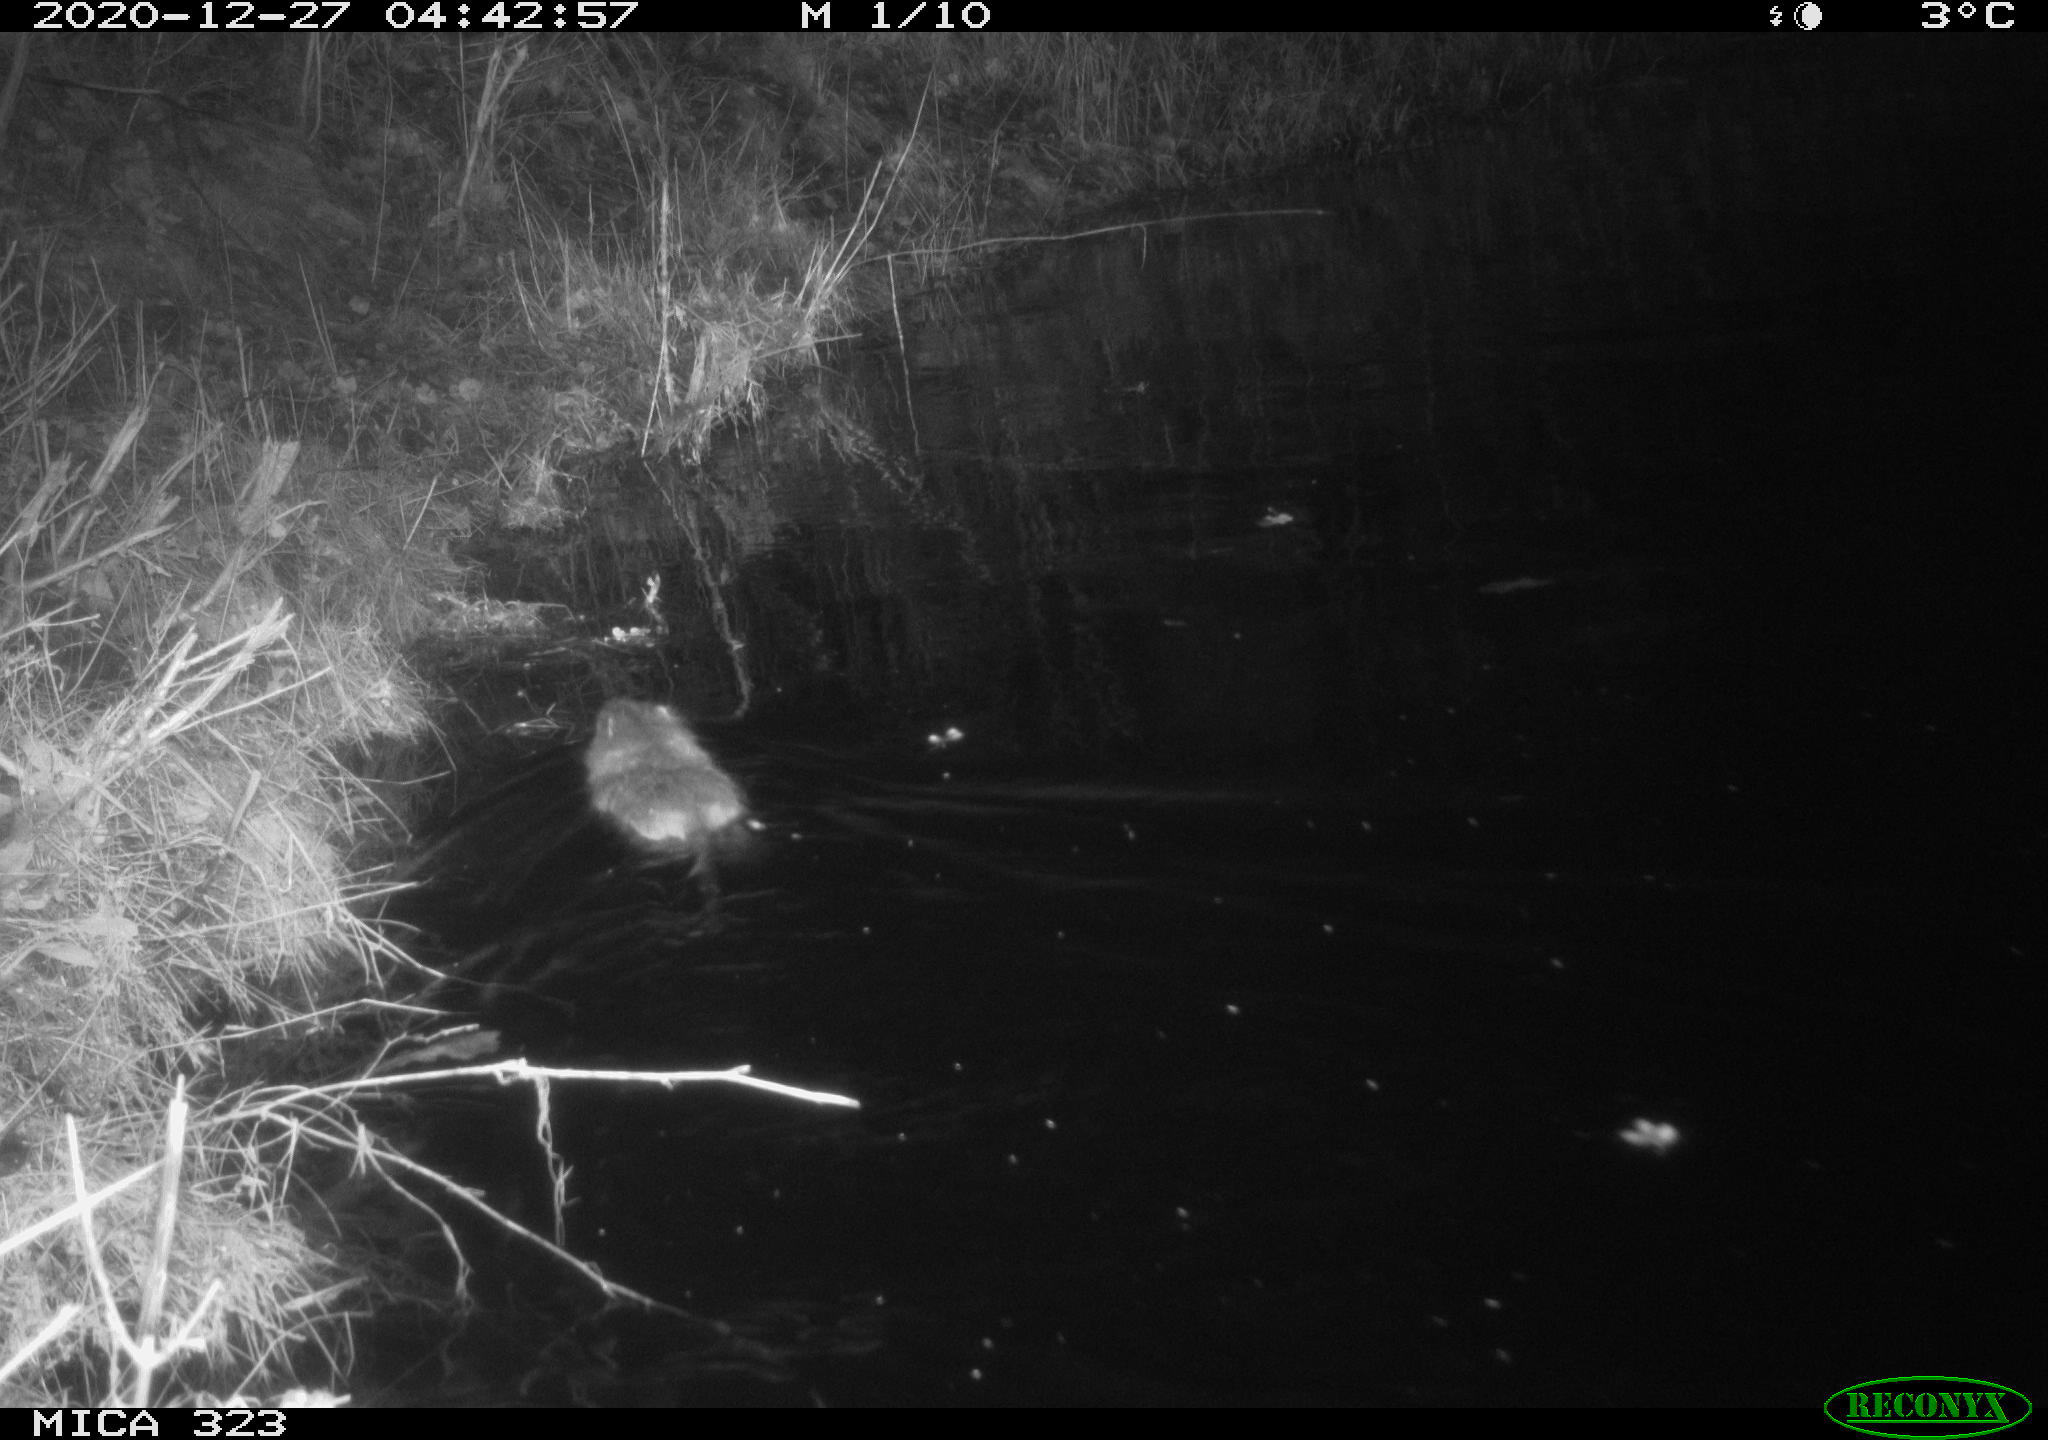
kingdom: Animalia
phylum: Chordata
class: Mammalia
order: Rodentia
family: Myocastoridae
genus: Myocastor
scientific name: Myocastor coypus
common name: Coypu
